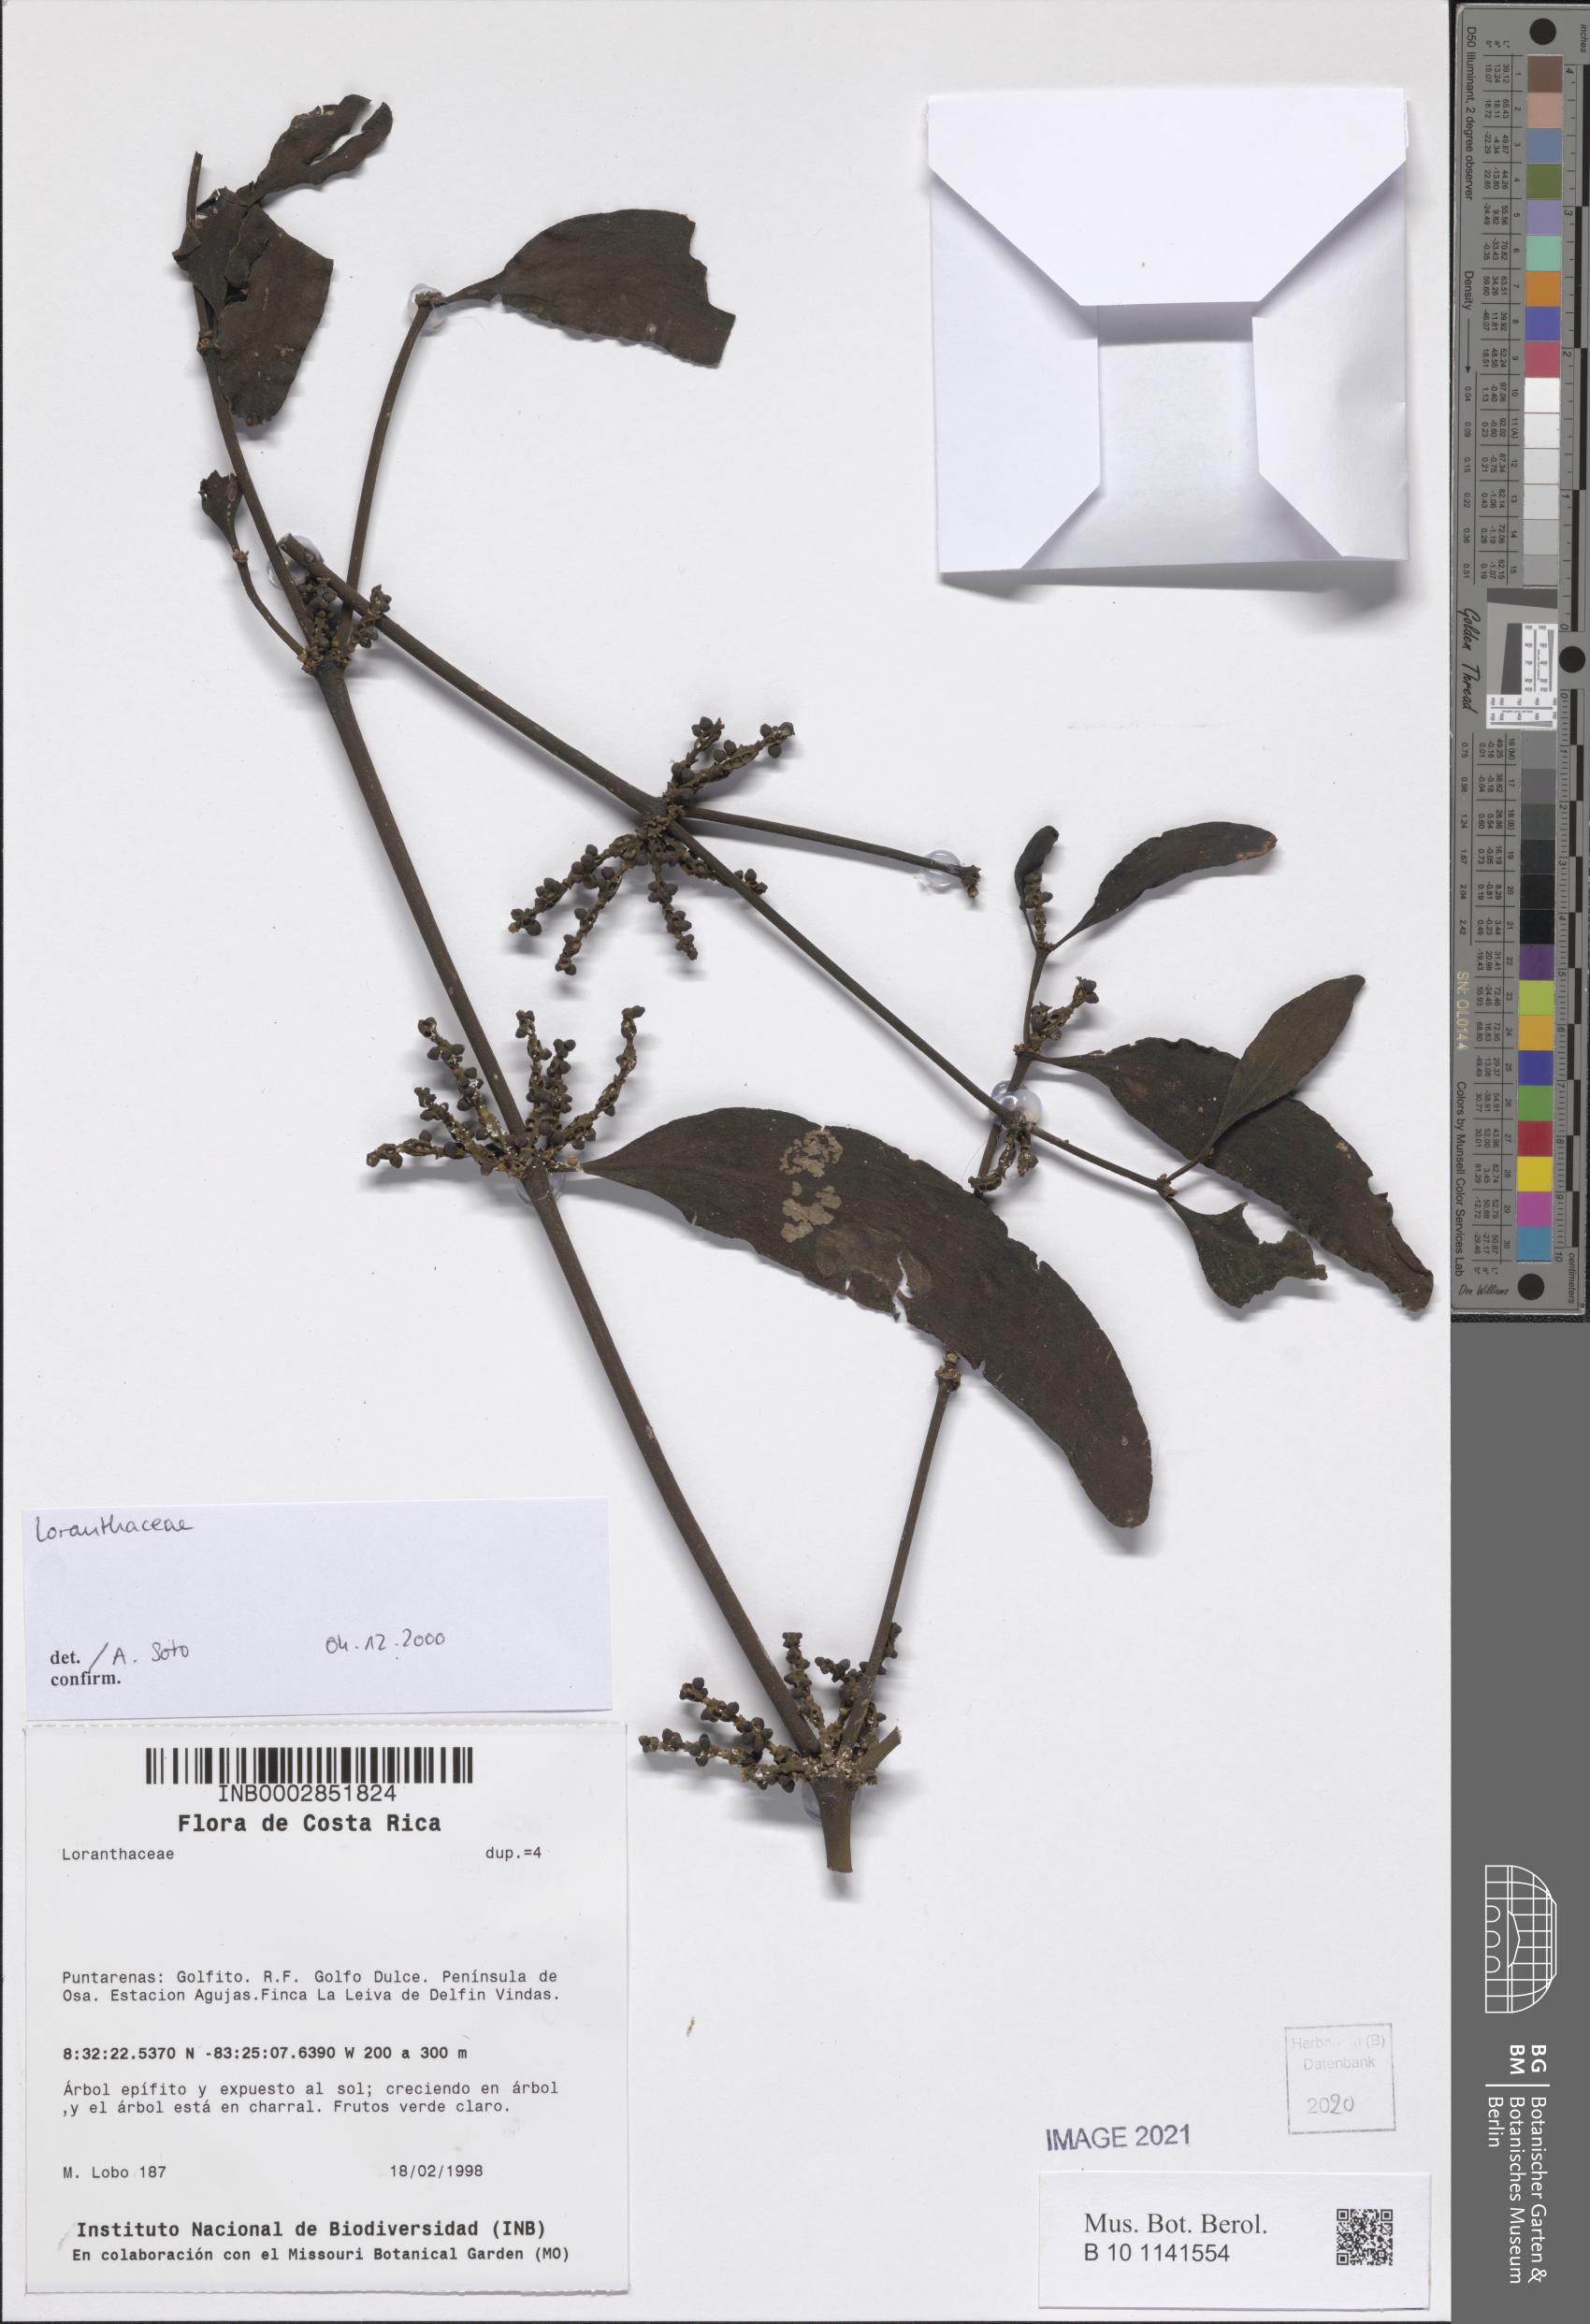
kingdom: Plantae
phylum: Tracheophyta
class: Magnoliopsida
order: Santalales
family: Loranthaceae
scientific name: Loranthaceae
